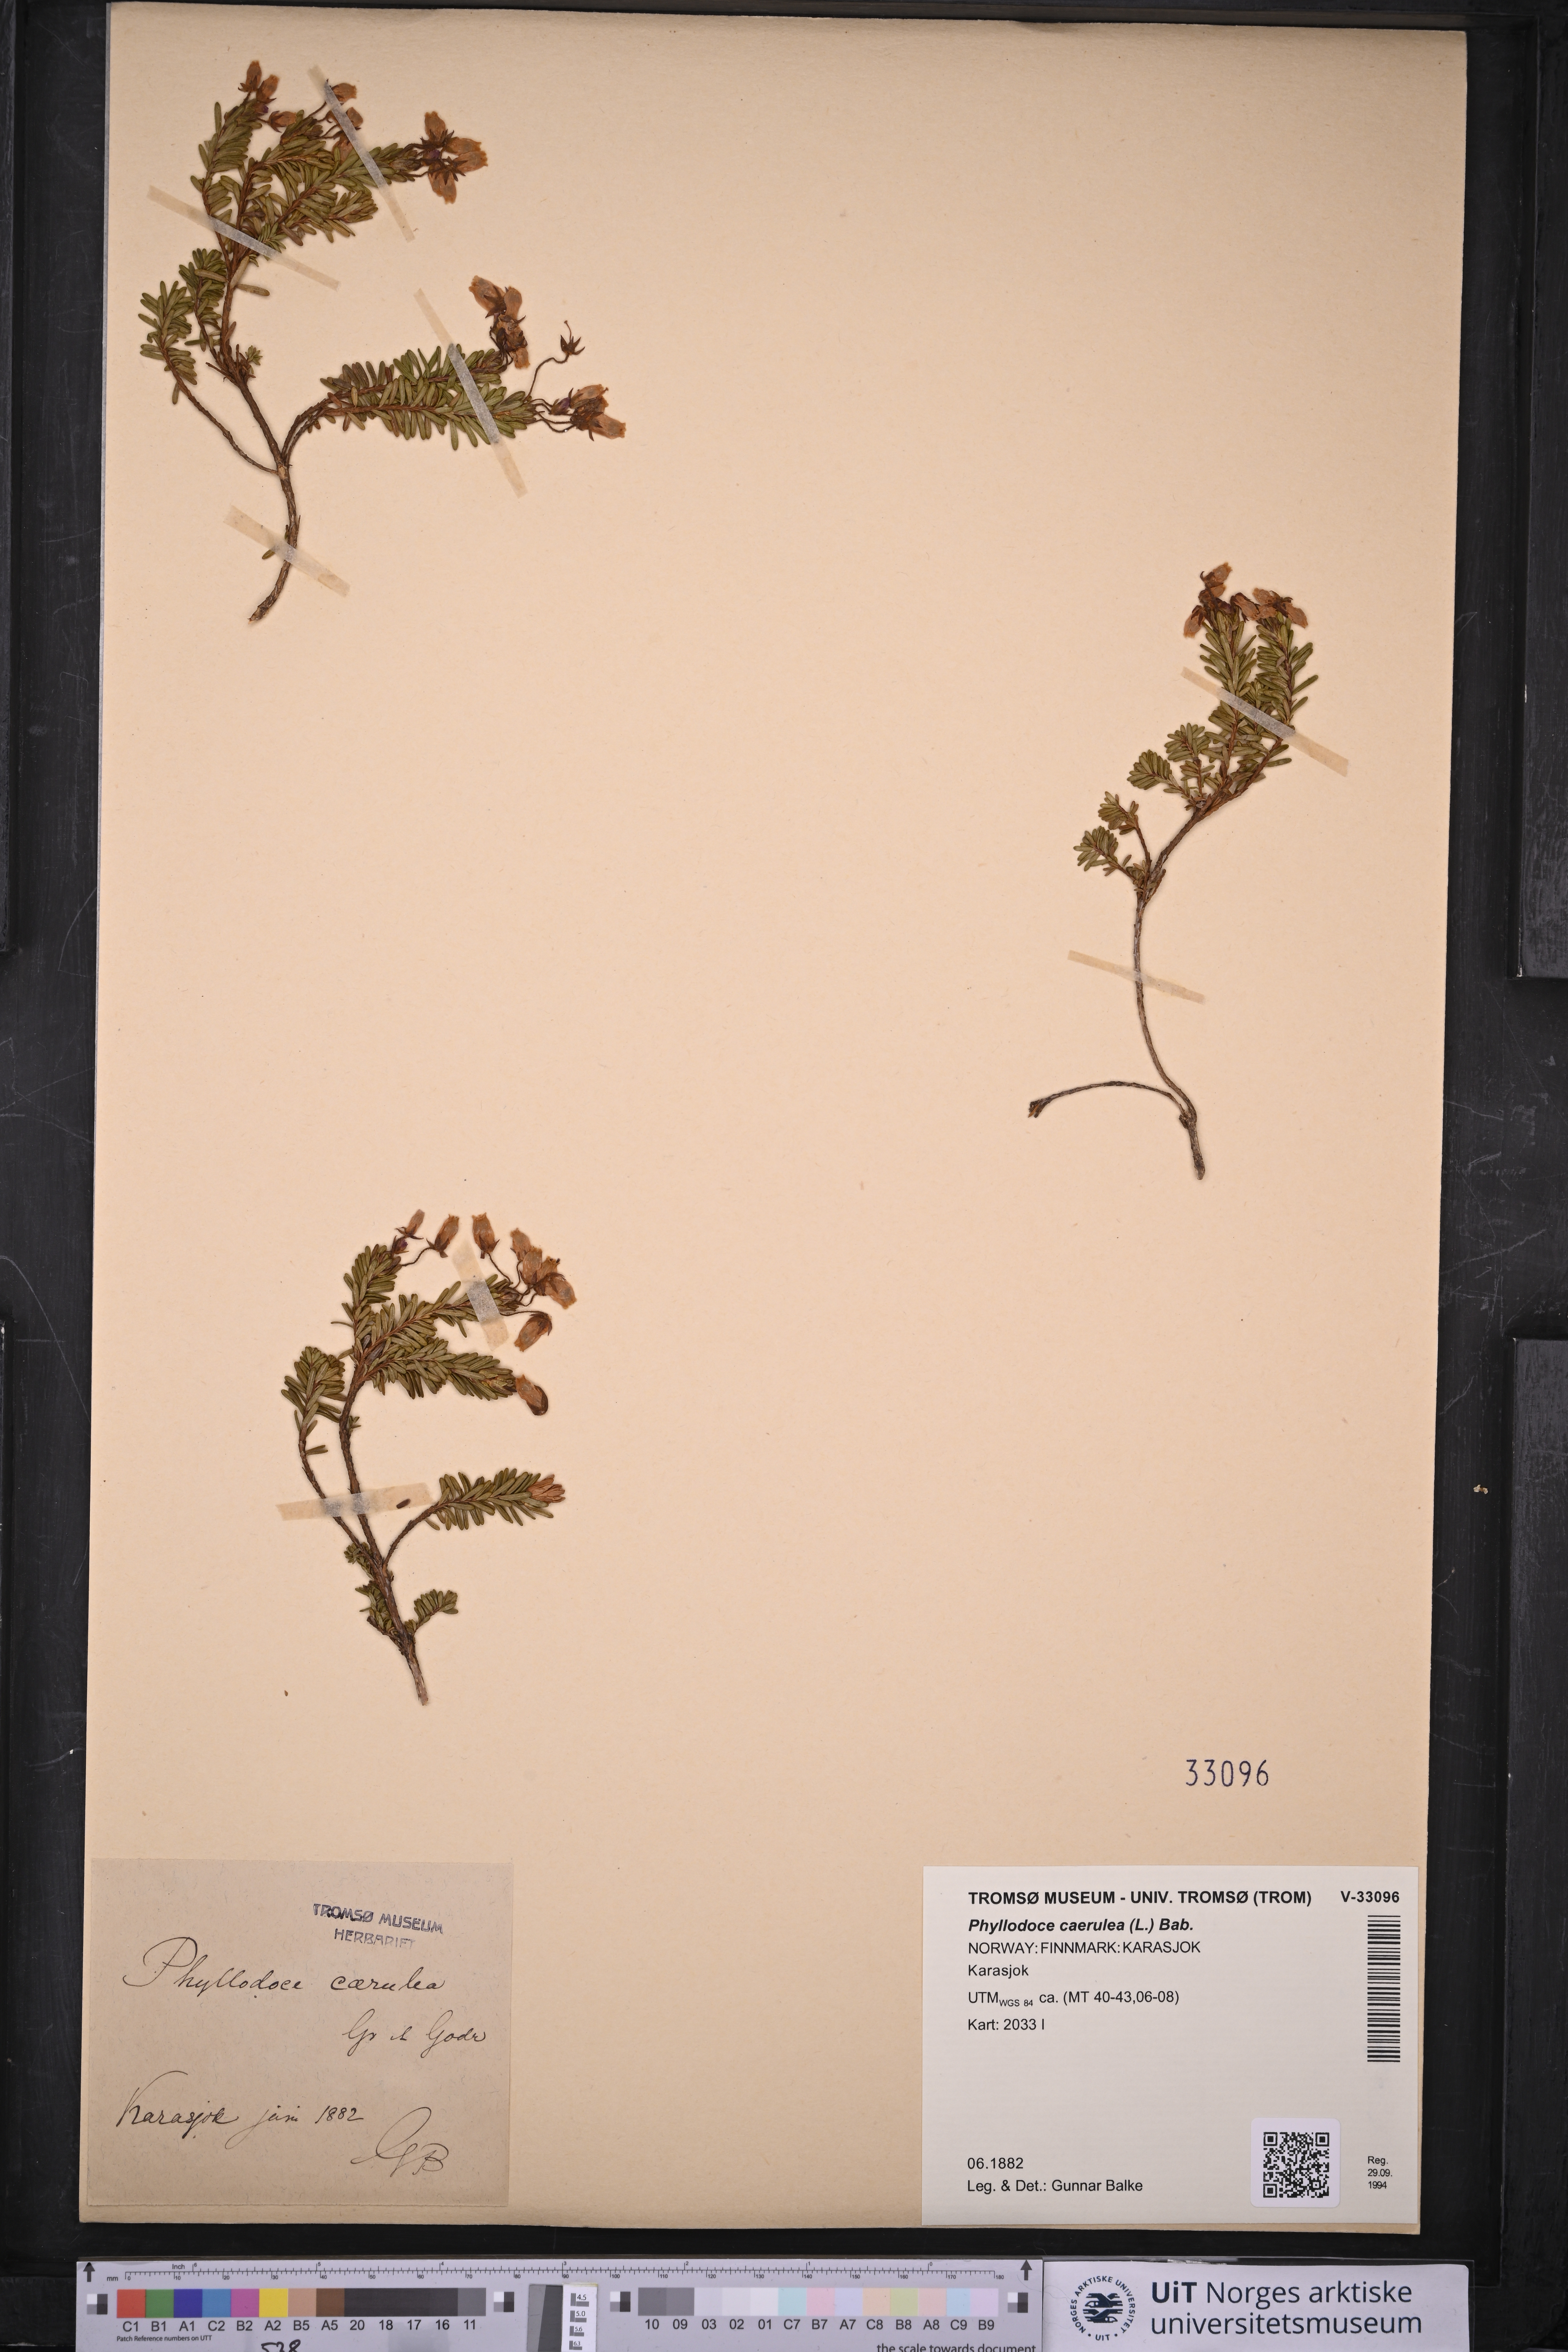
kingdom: Plantae
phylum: Tracheophyta
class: Magnoliopsida
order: Ericales
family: Ericaceae
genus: Phyllodoce
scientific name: Phyllodoce caerulea
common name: Blue heath
